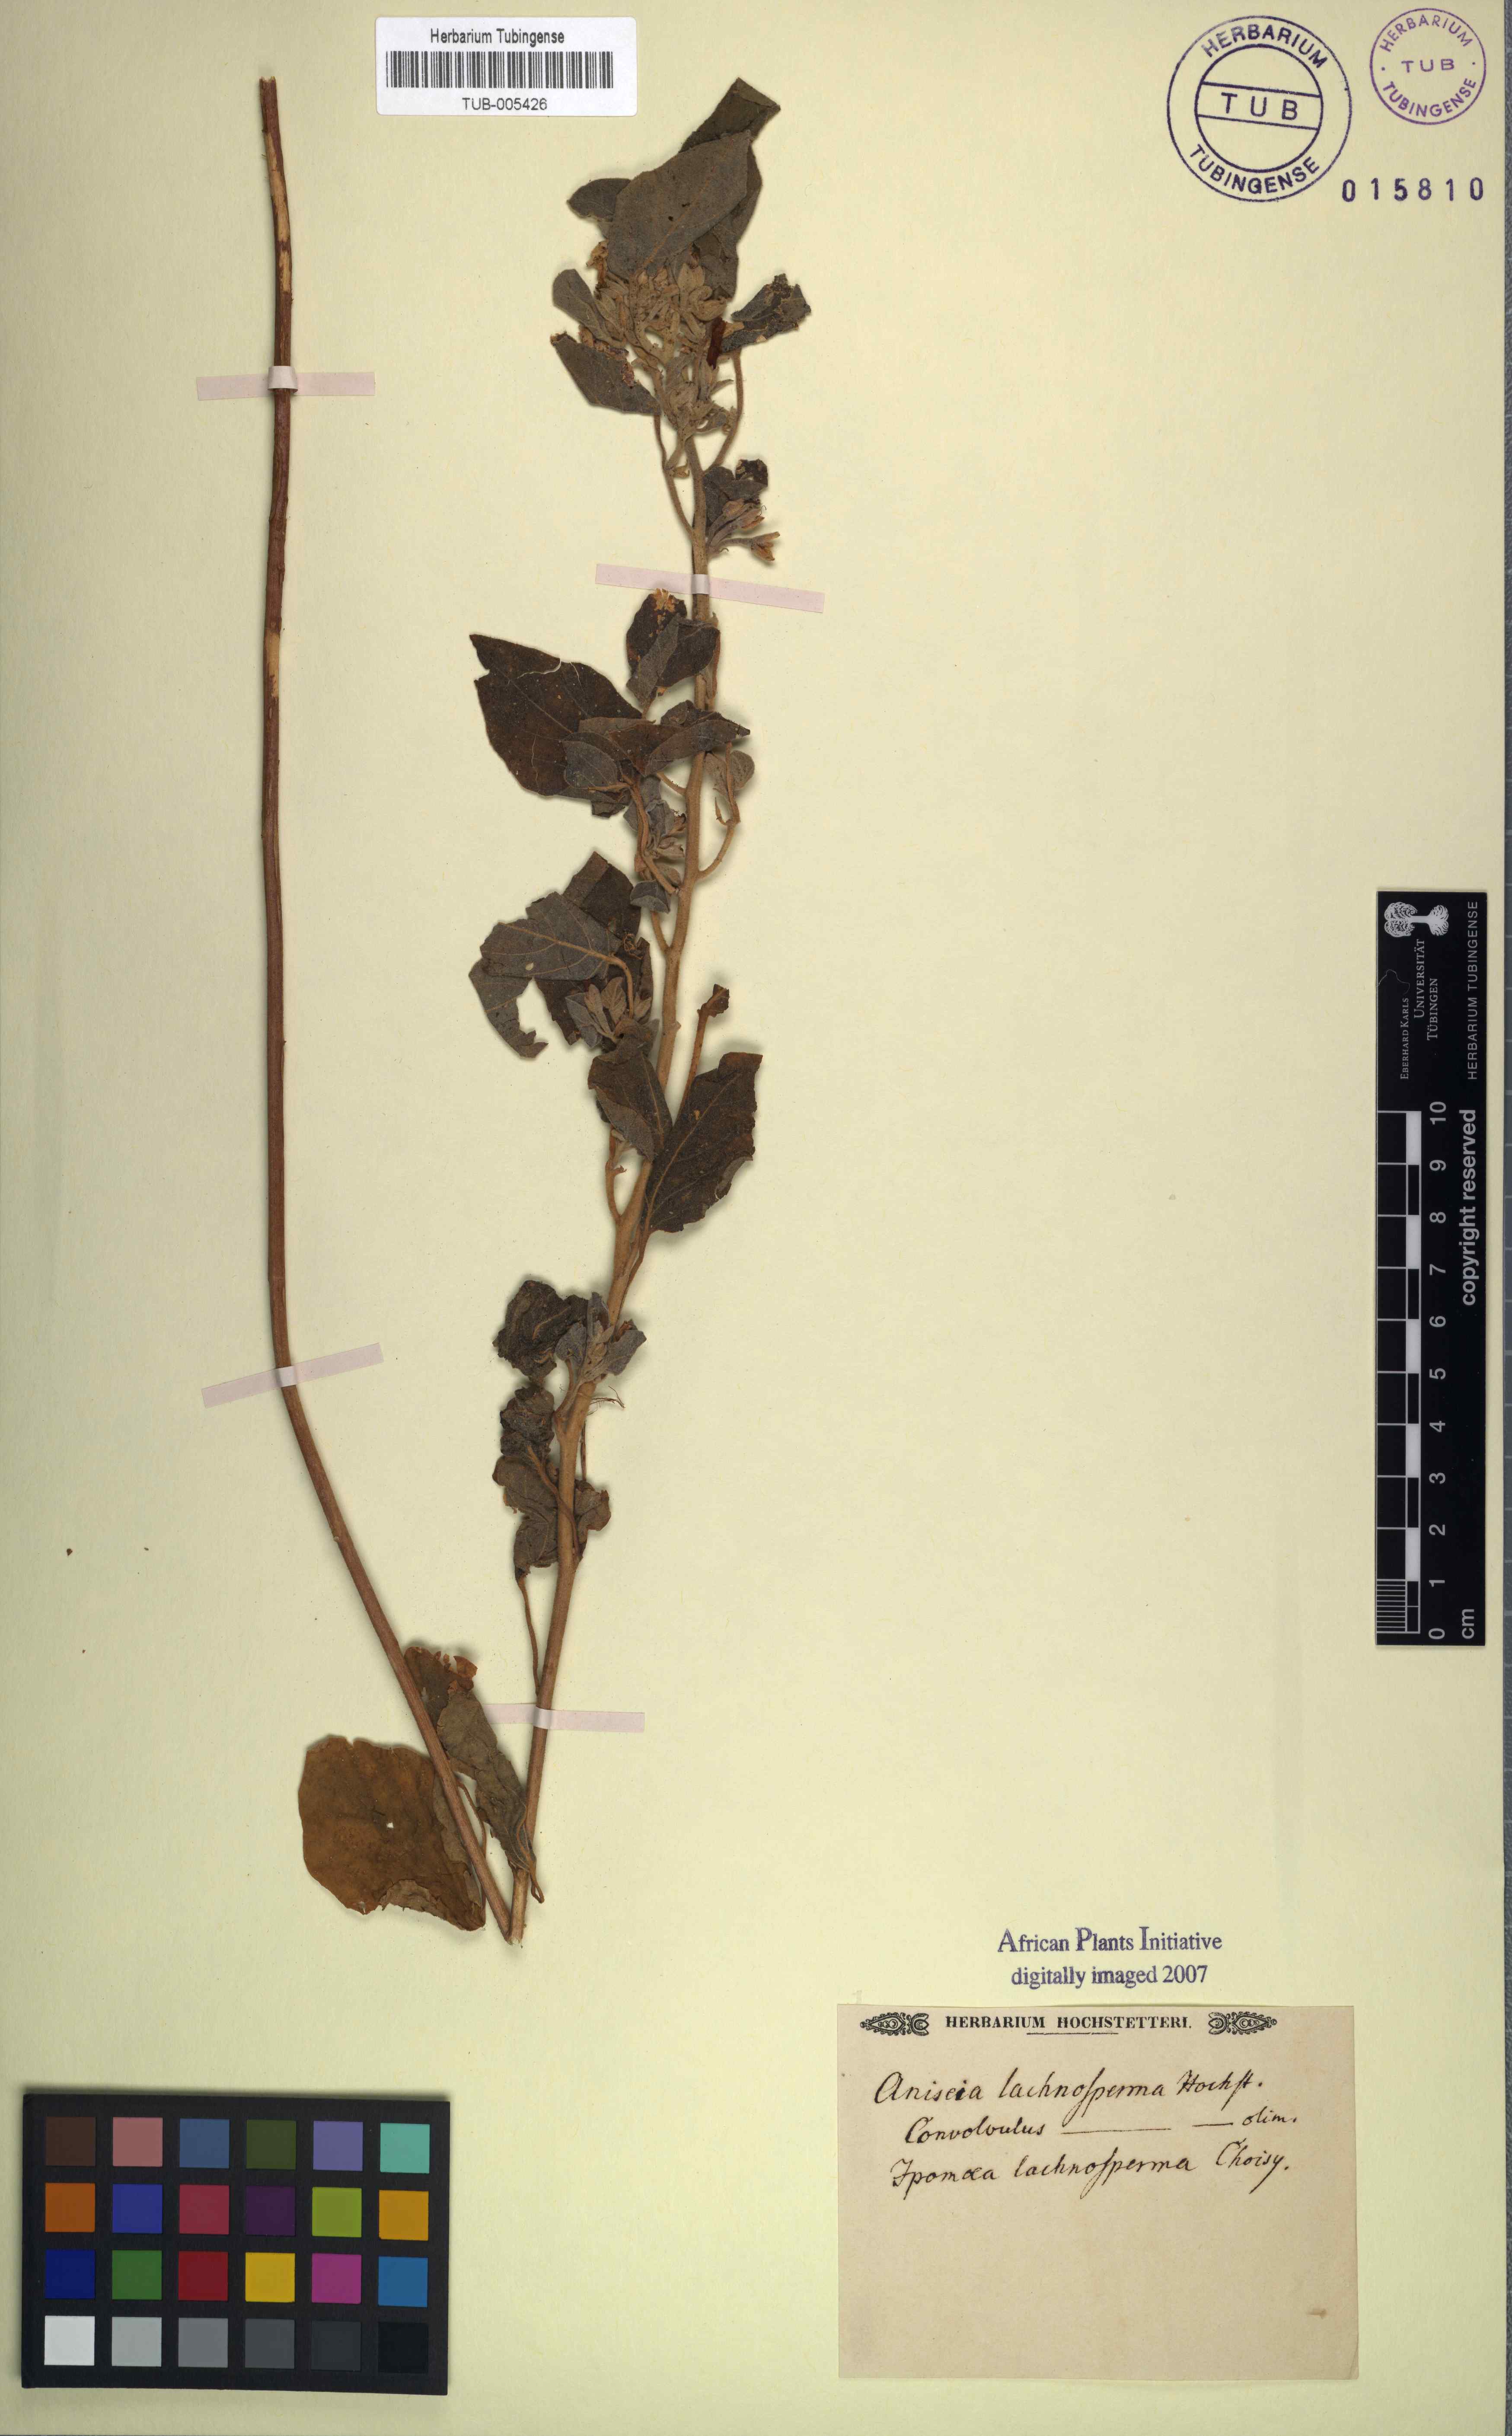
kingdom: Plantae
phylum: Tracheophyta
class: Magnoliopsida
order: Solanales
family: Convolvulaceae
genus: Aniseia
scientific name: Aniseia
